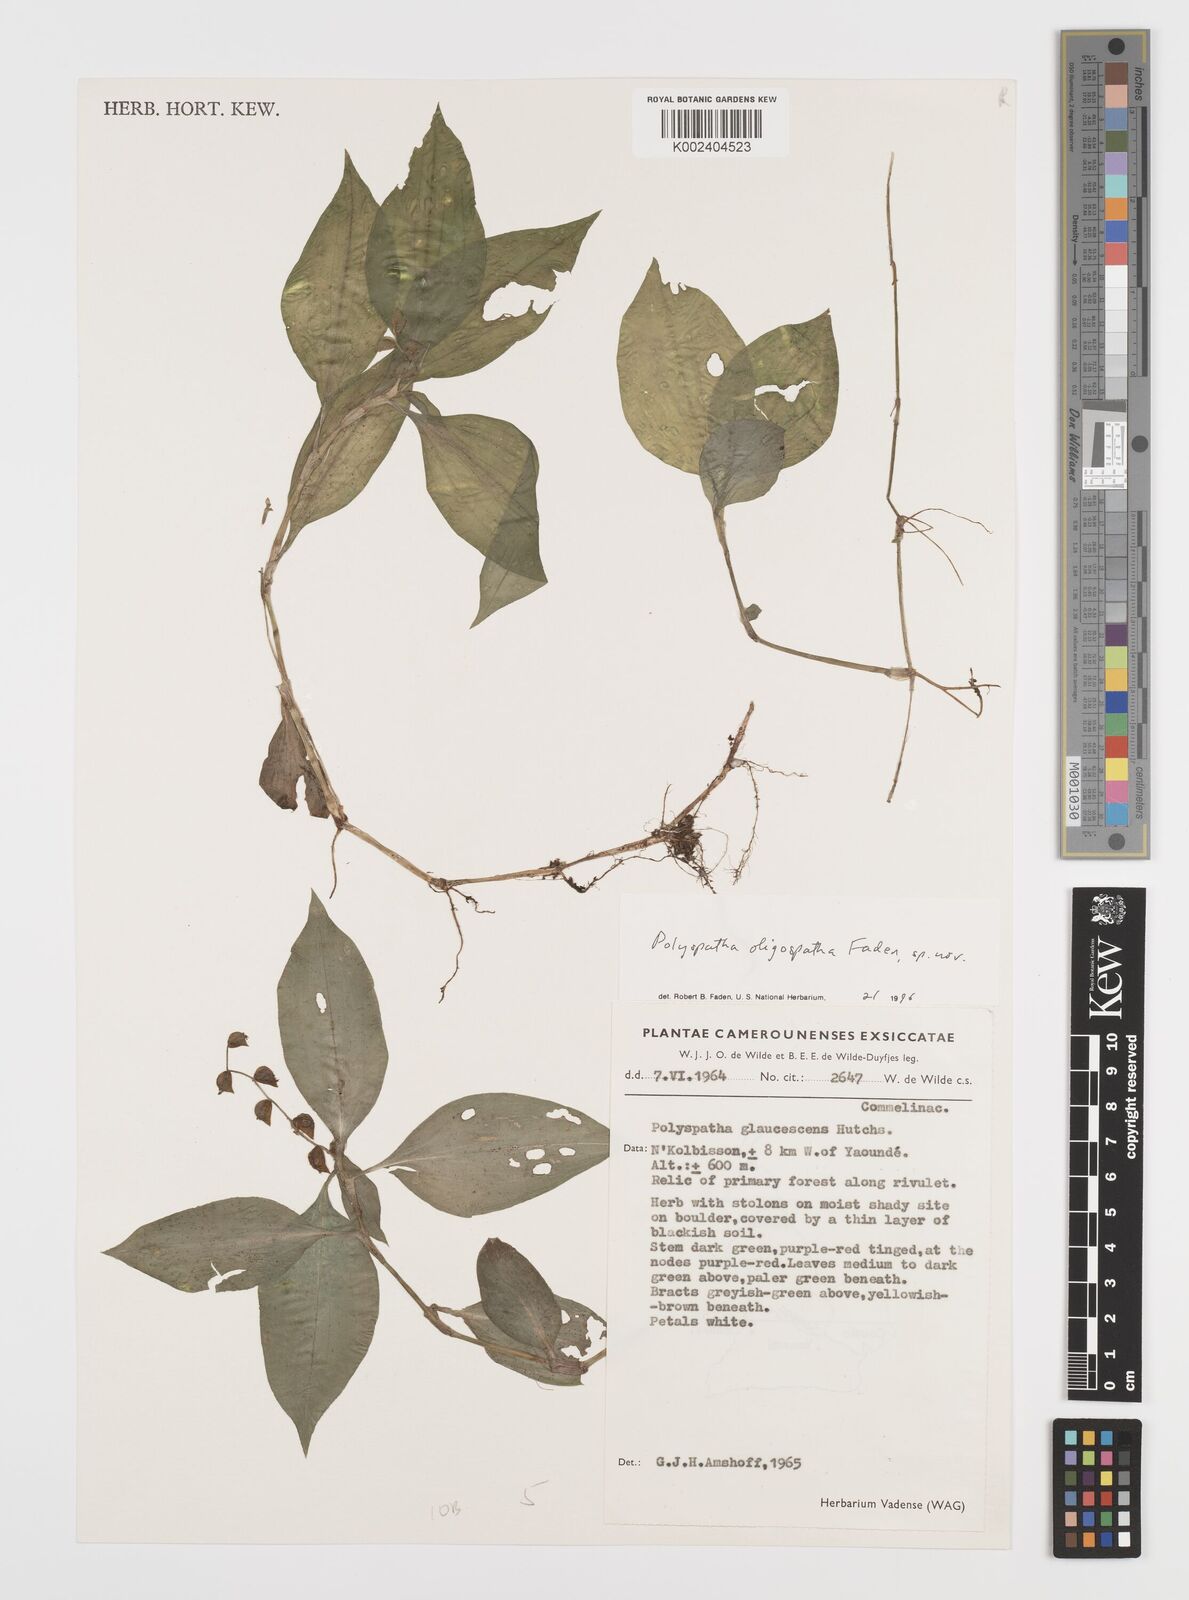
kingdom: Plantae
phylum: Tracheophyta
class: Liliopsida
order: Commelinales
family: Commelinaceae
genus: Polyspatha
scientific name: Polyspatha paniculata
